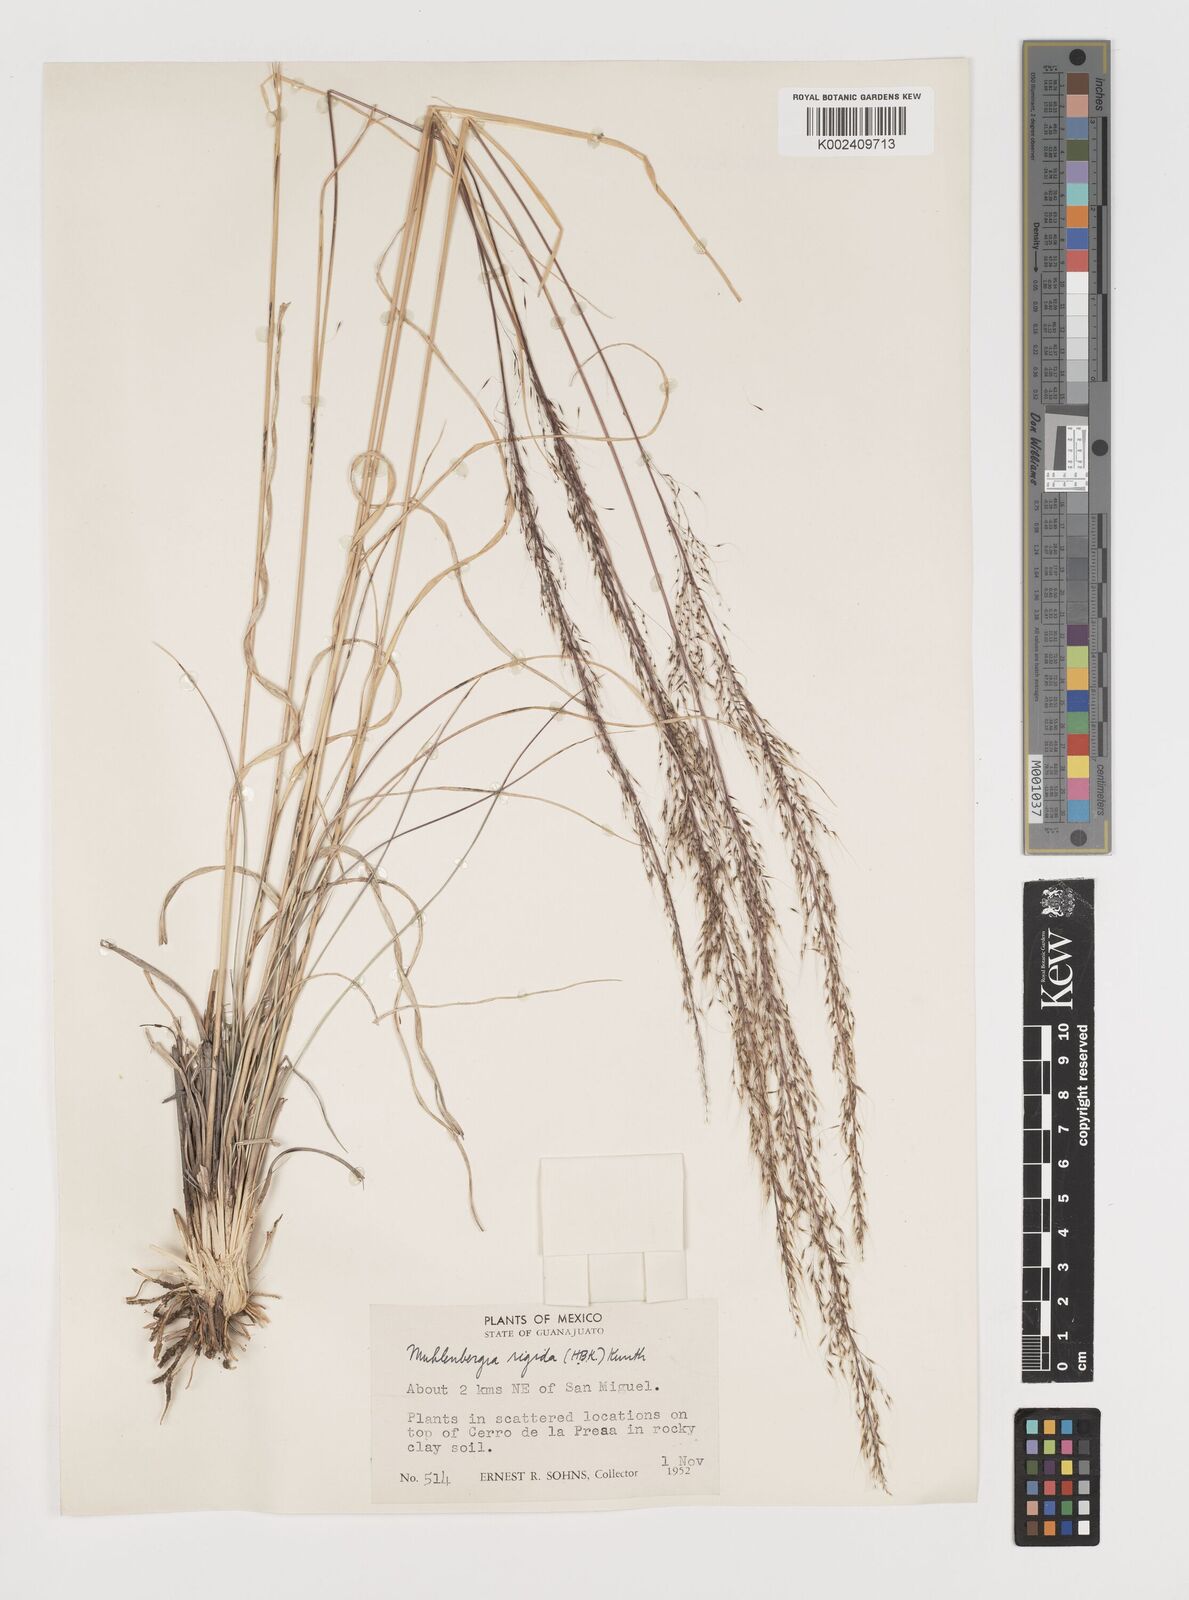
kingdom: Plantae
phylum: Tracheophyta
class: Liliopsida
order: Poales
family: Poaceae
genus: Muhlenbergia
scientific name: Muhlenbergia rigida
